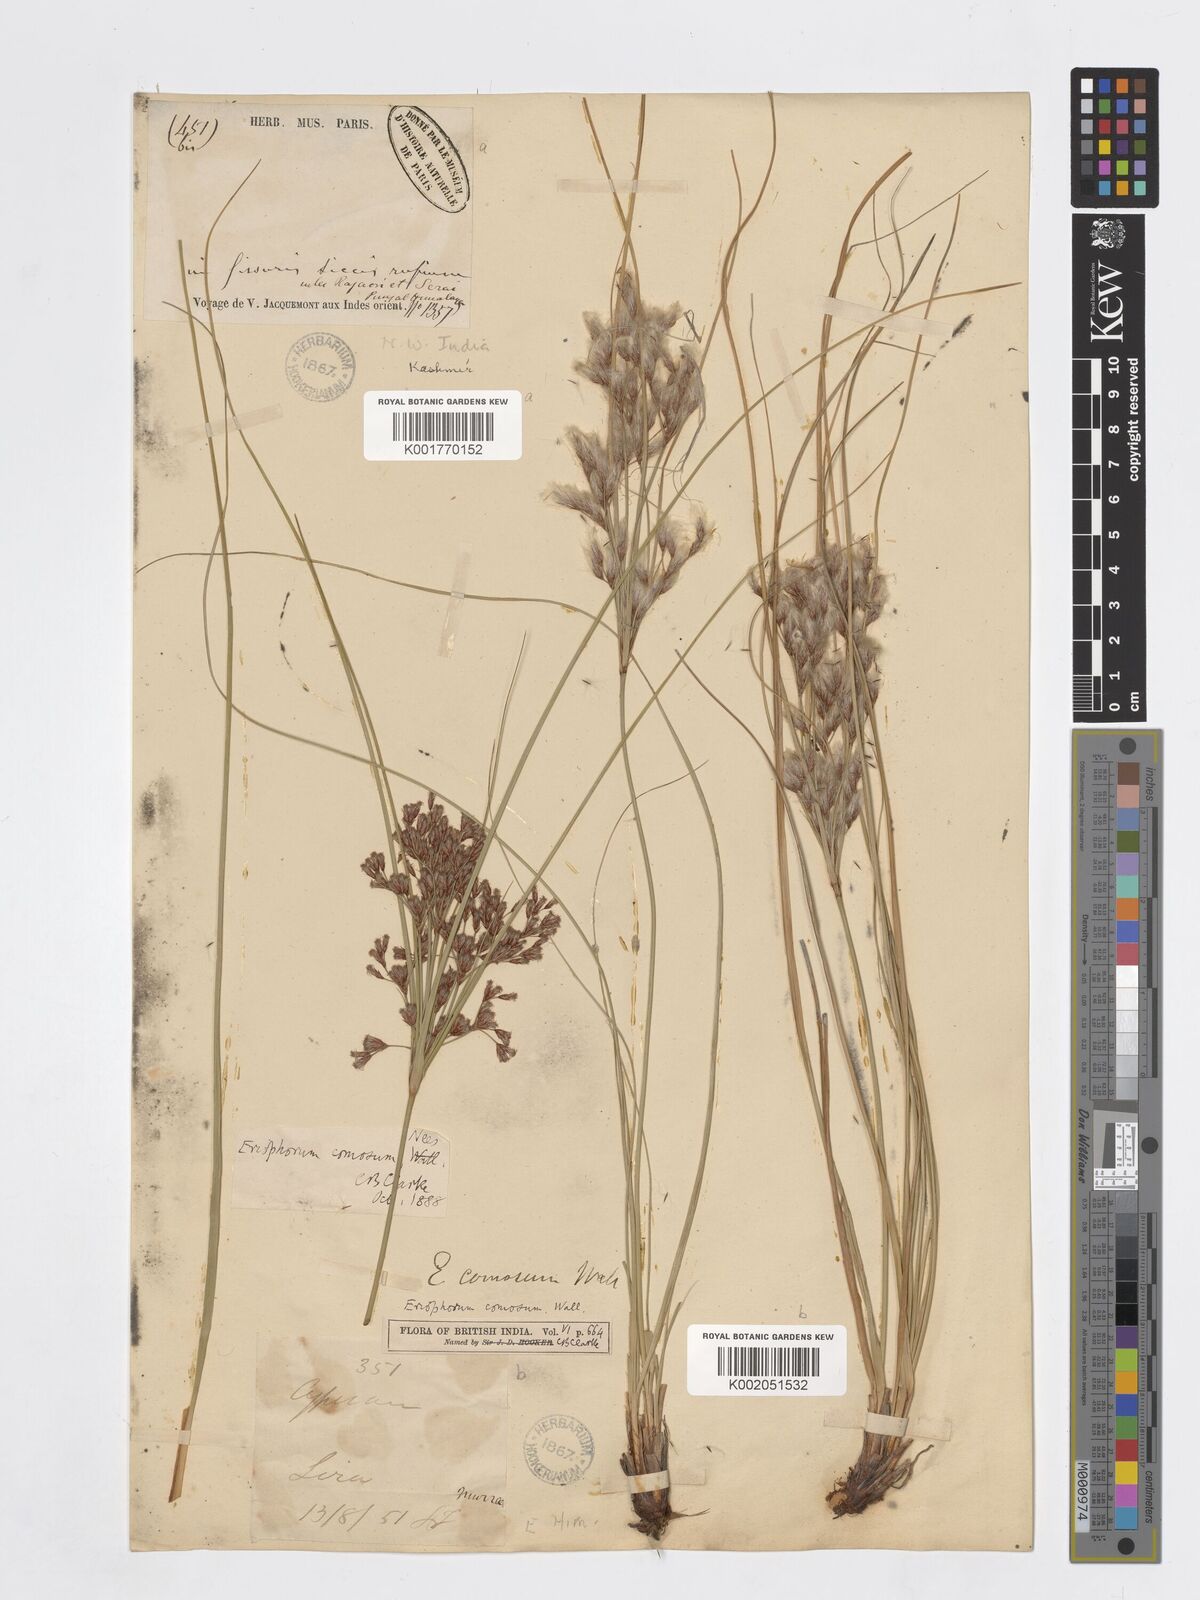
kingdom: Plantae
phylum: Tracheophyta
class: Liliopsida
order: Poales
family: Cyperaceae
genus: Erioscirpus
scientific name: Erioscirpus comosus
